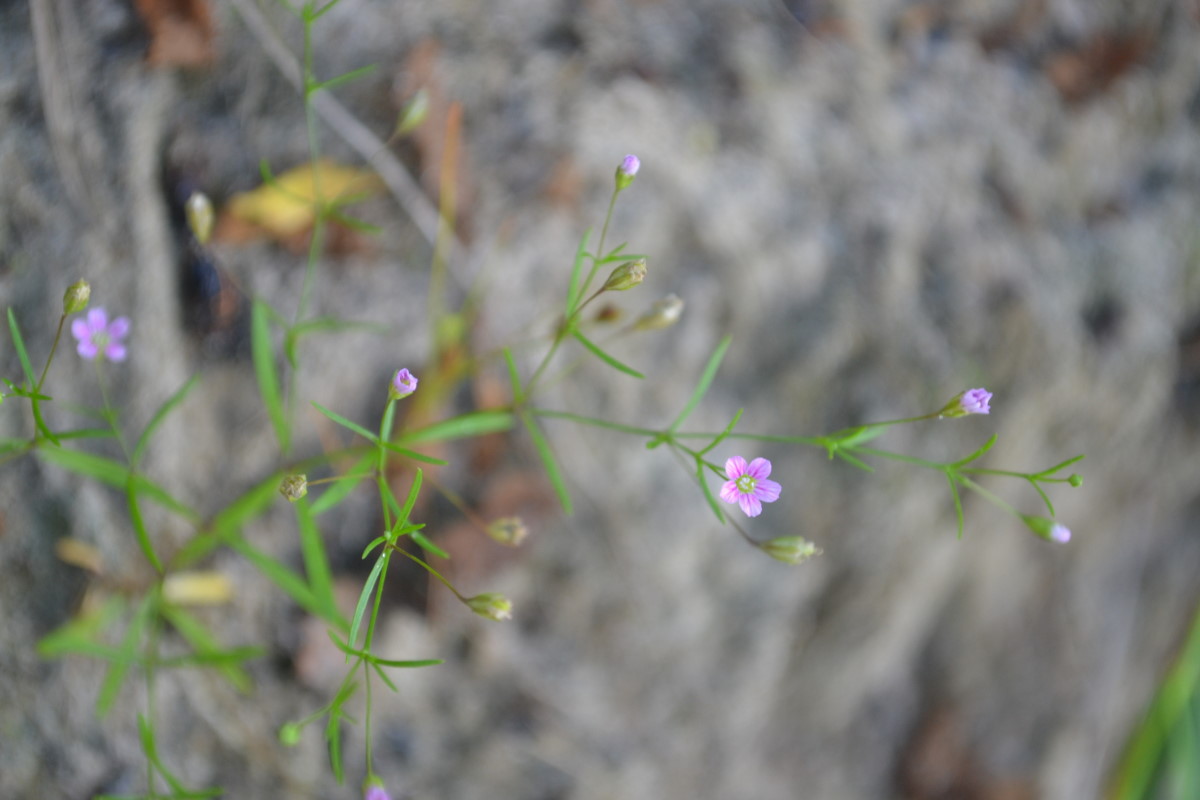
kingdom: Plantae
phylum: Tracheophyta
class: Magnoliopsida
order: Caryophyllales
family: Caryophyllaceae
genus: Psammophiliella
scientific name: Psammophiliella muralis
